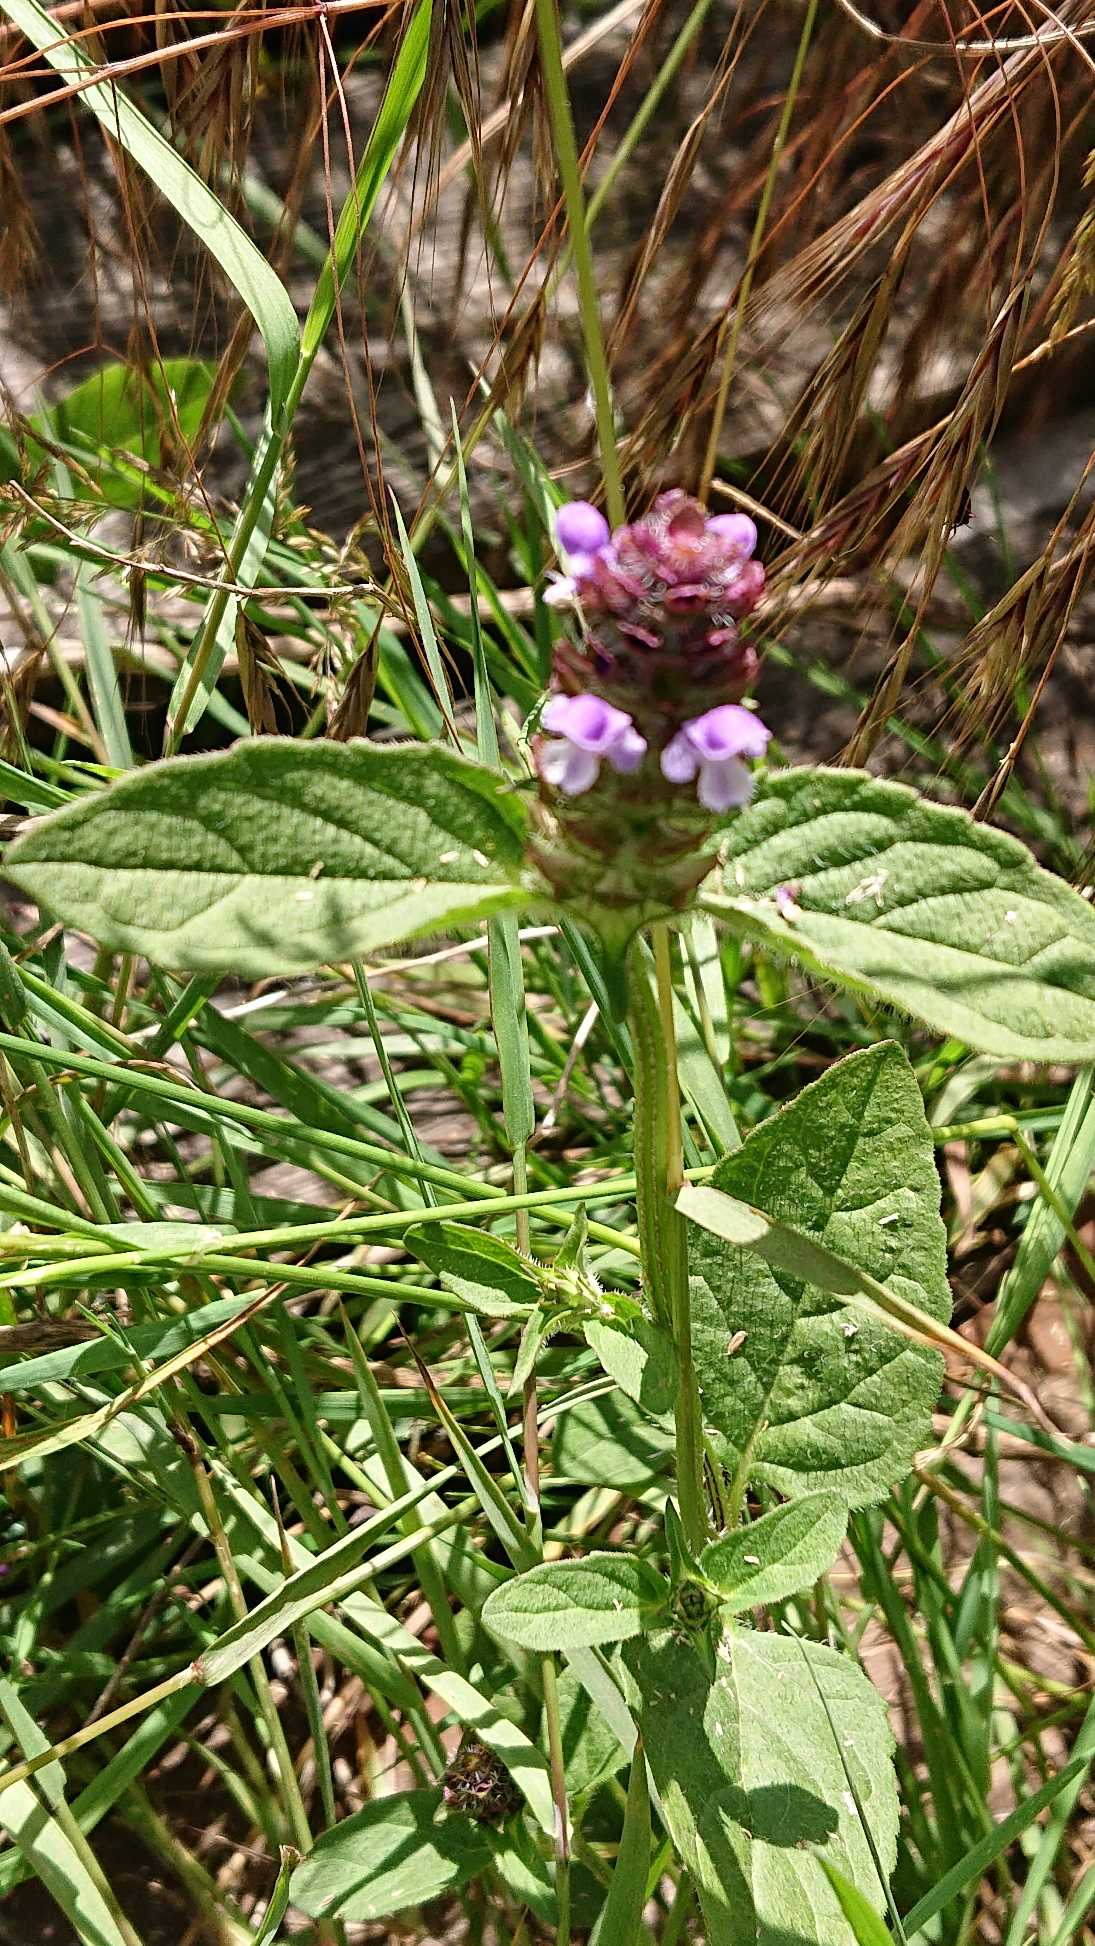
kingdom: Plantae
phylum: Tracheophyta
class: Magnoliopsida
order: Lamiales
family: Lamiaceae
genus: Prunella
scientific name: Prunella vulgaris
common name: Almindelig brunelle
